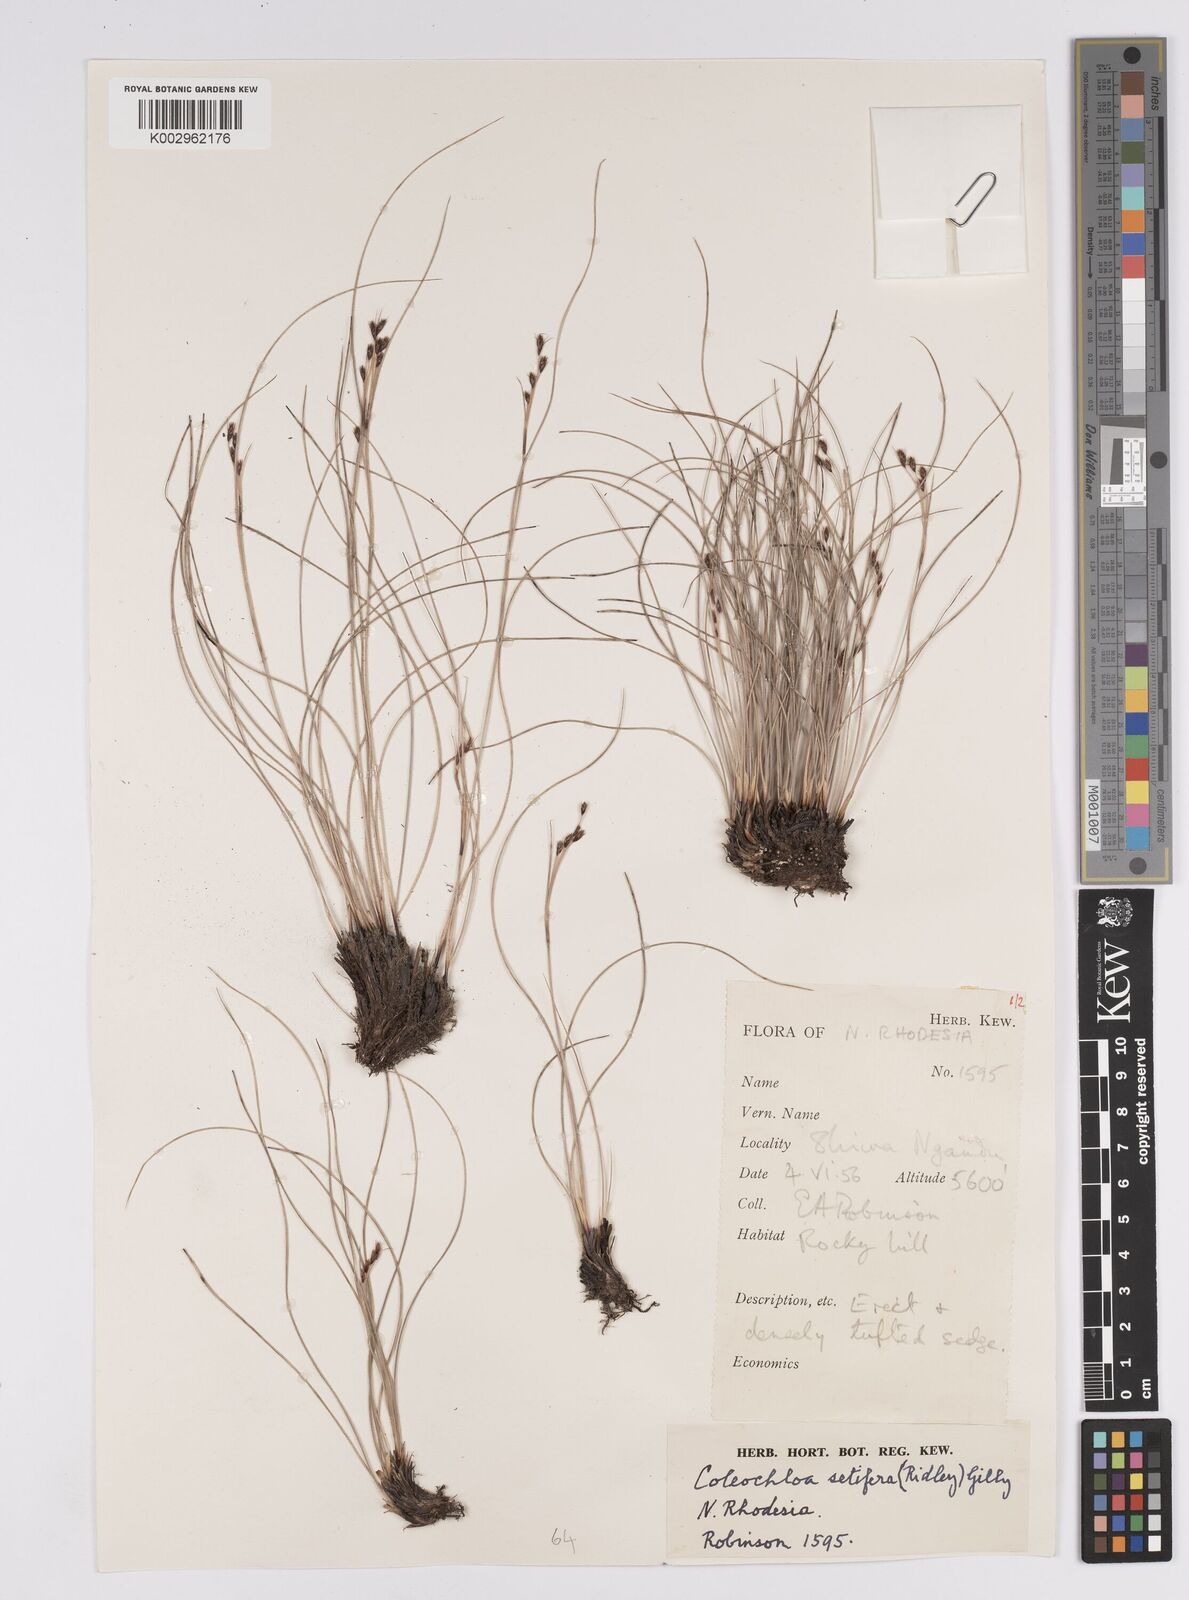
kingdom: Plantae
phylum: Tracheophyta
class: Liliopsida
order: Poales
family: Cyperaceae
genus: Coleochloa
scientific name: Coleochloa setifera
